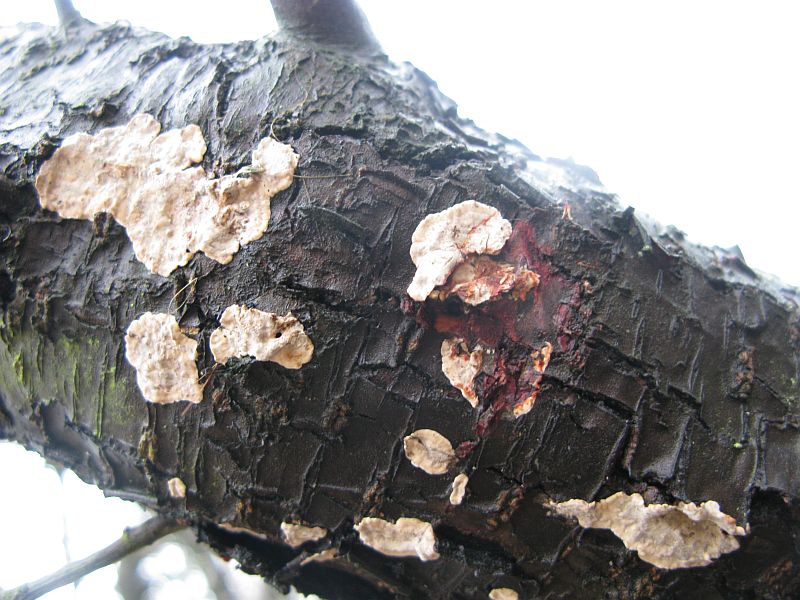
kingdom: Fungi
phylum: Basidiomycota
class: Agaricomycetes
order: Russulales
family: Stereaceae
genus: Stereum
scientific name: Stereum rugosum
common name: rynket lædersvamp
